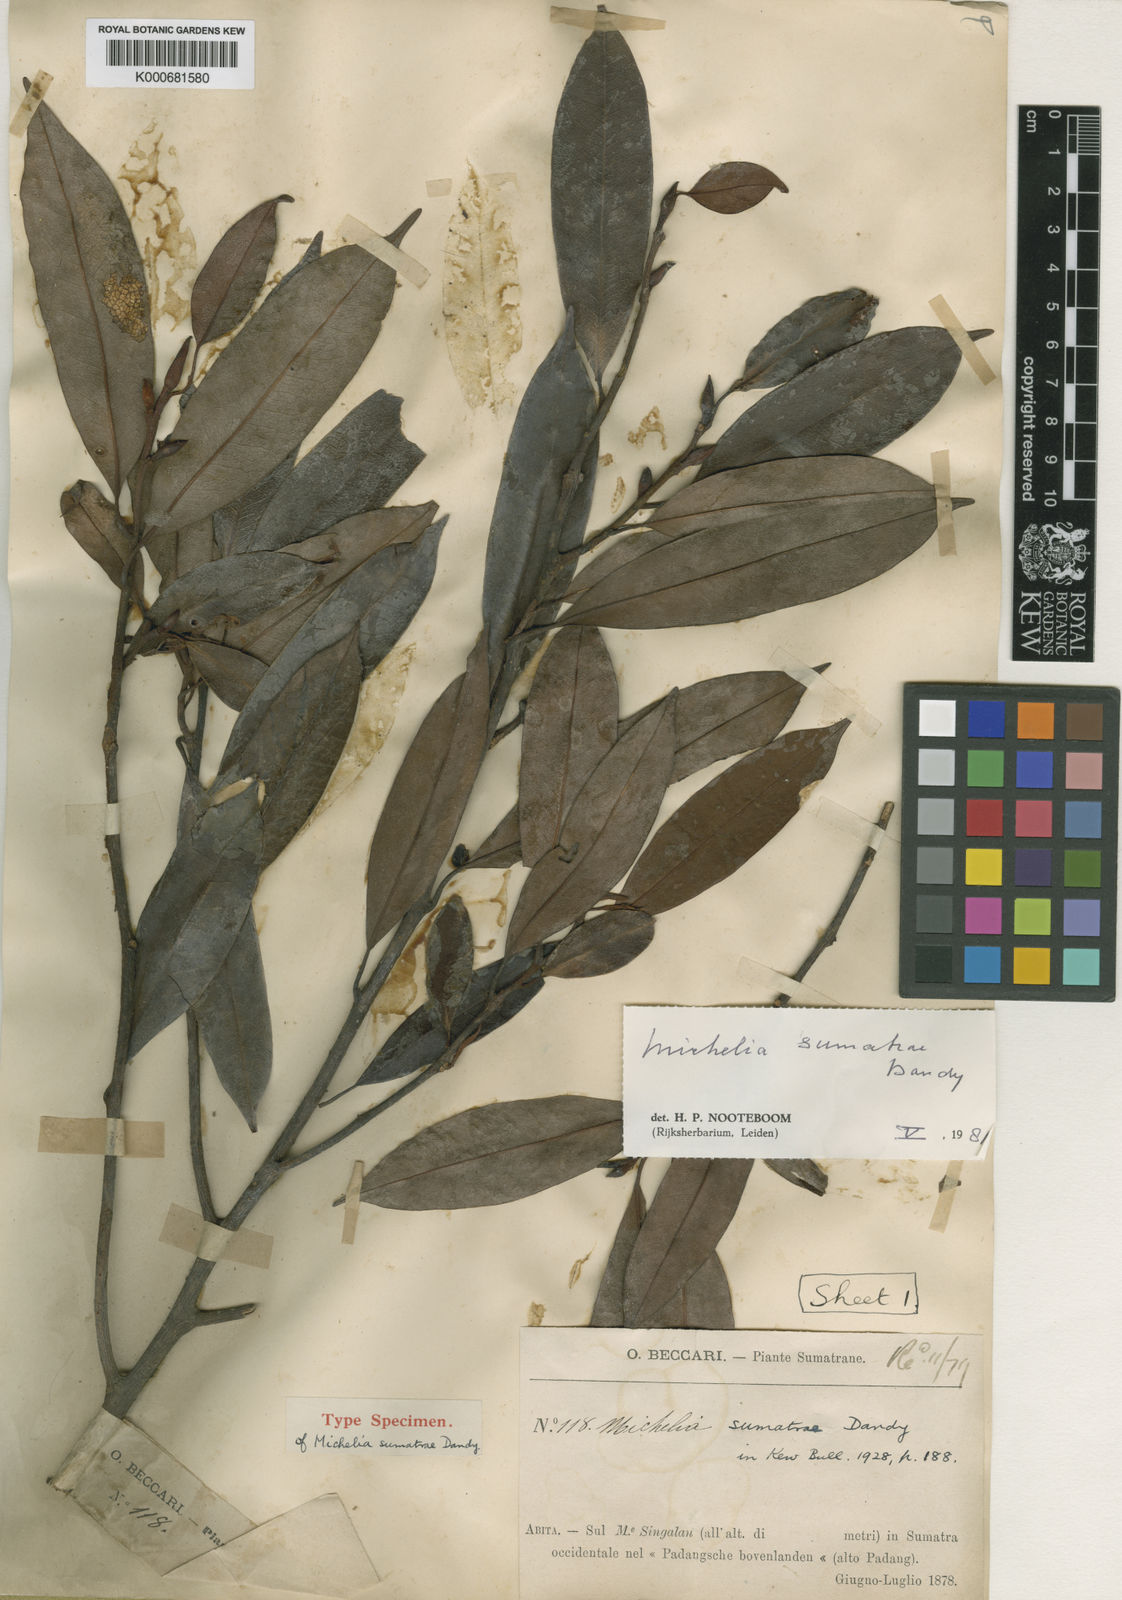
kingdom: Plantae
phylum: Tracheophyta
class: Magnoliopsida
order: Magnoliales
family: Magnoliaceae
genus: Magnolia
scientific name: Magnolia sumatrae
